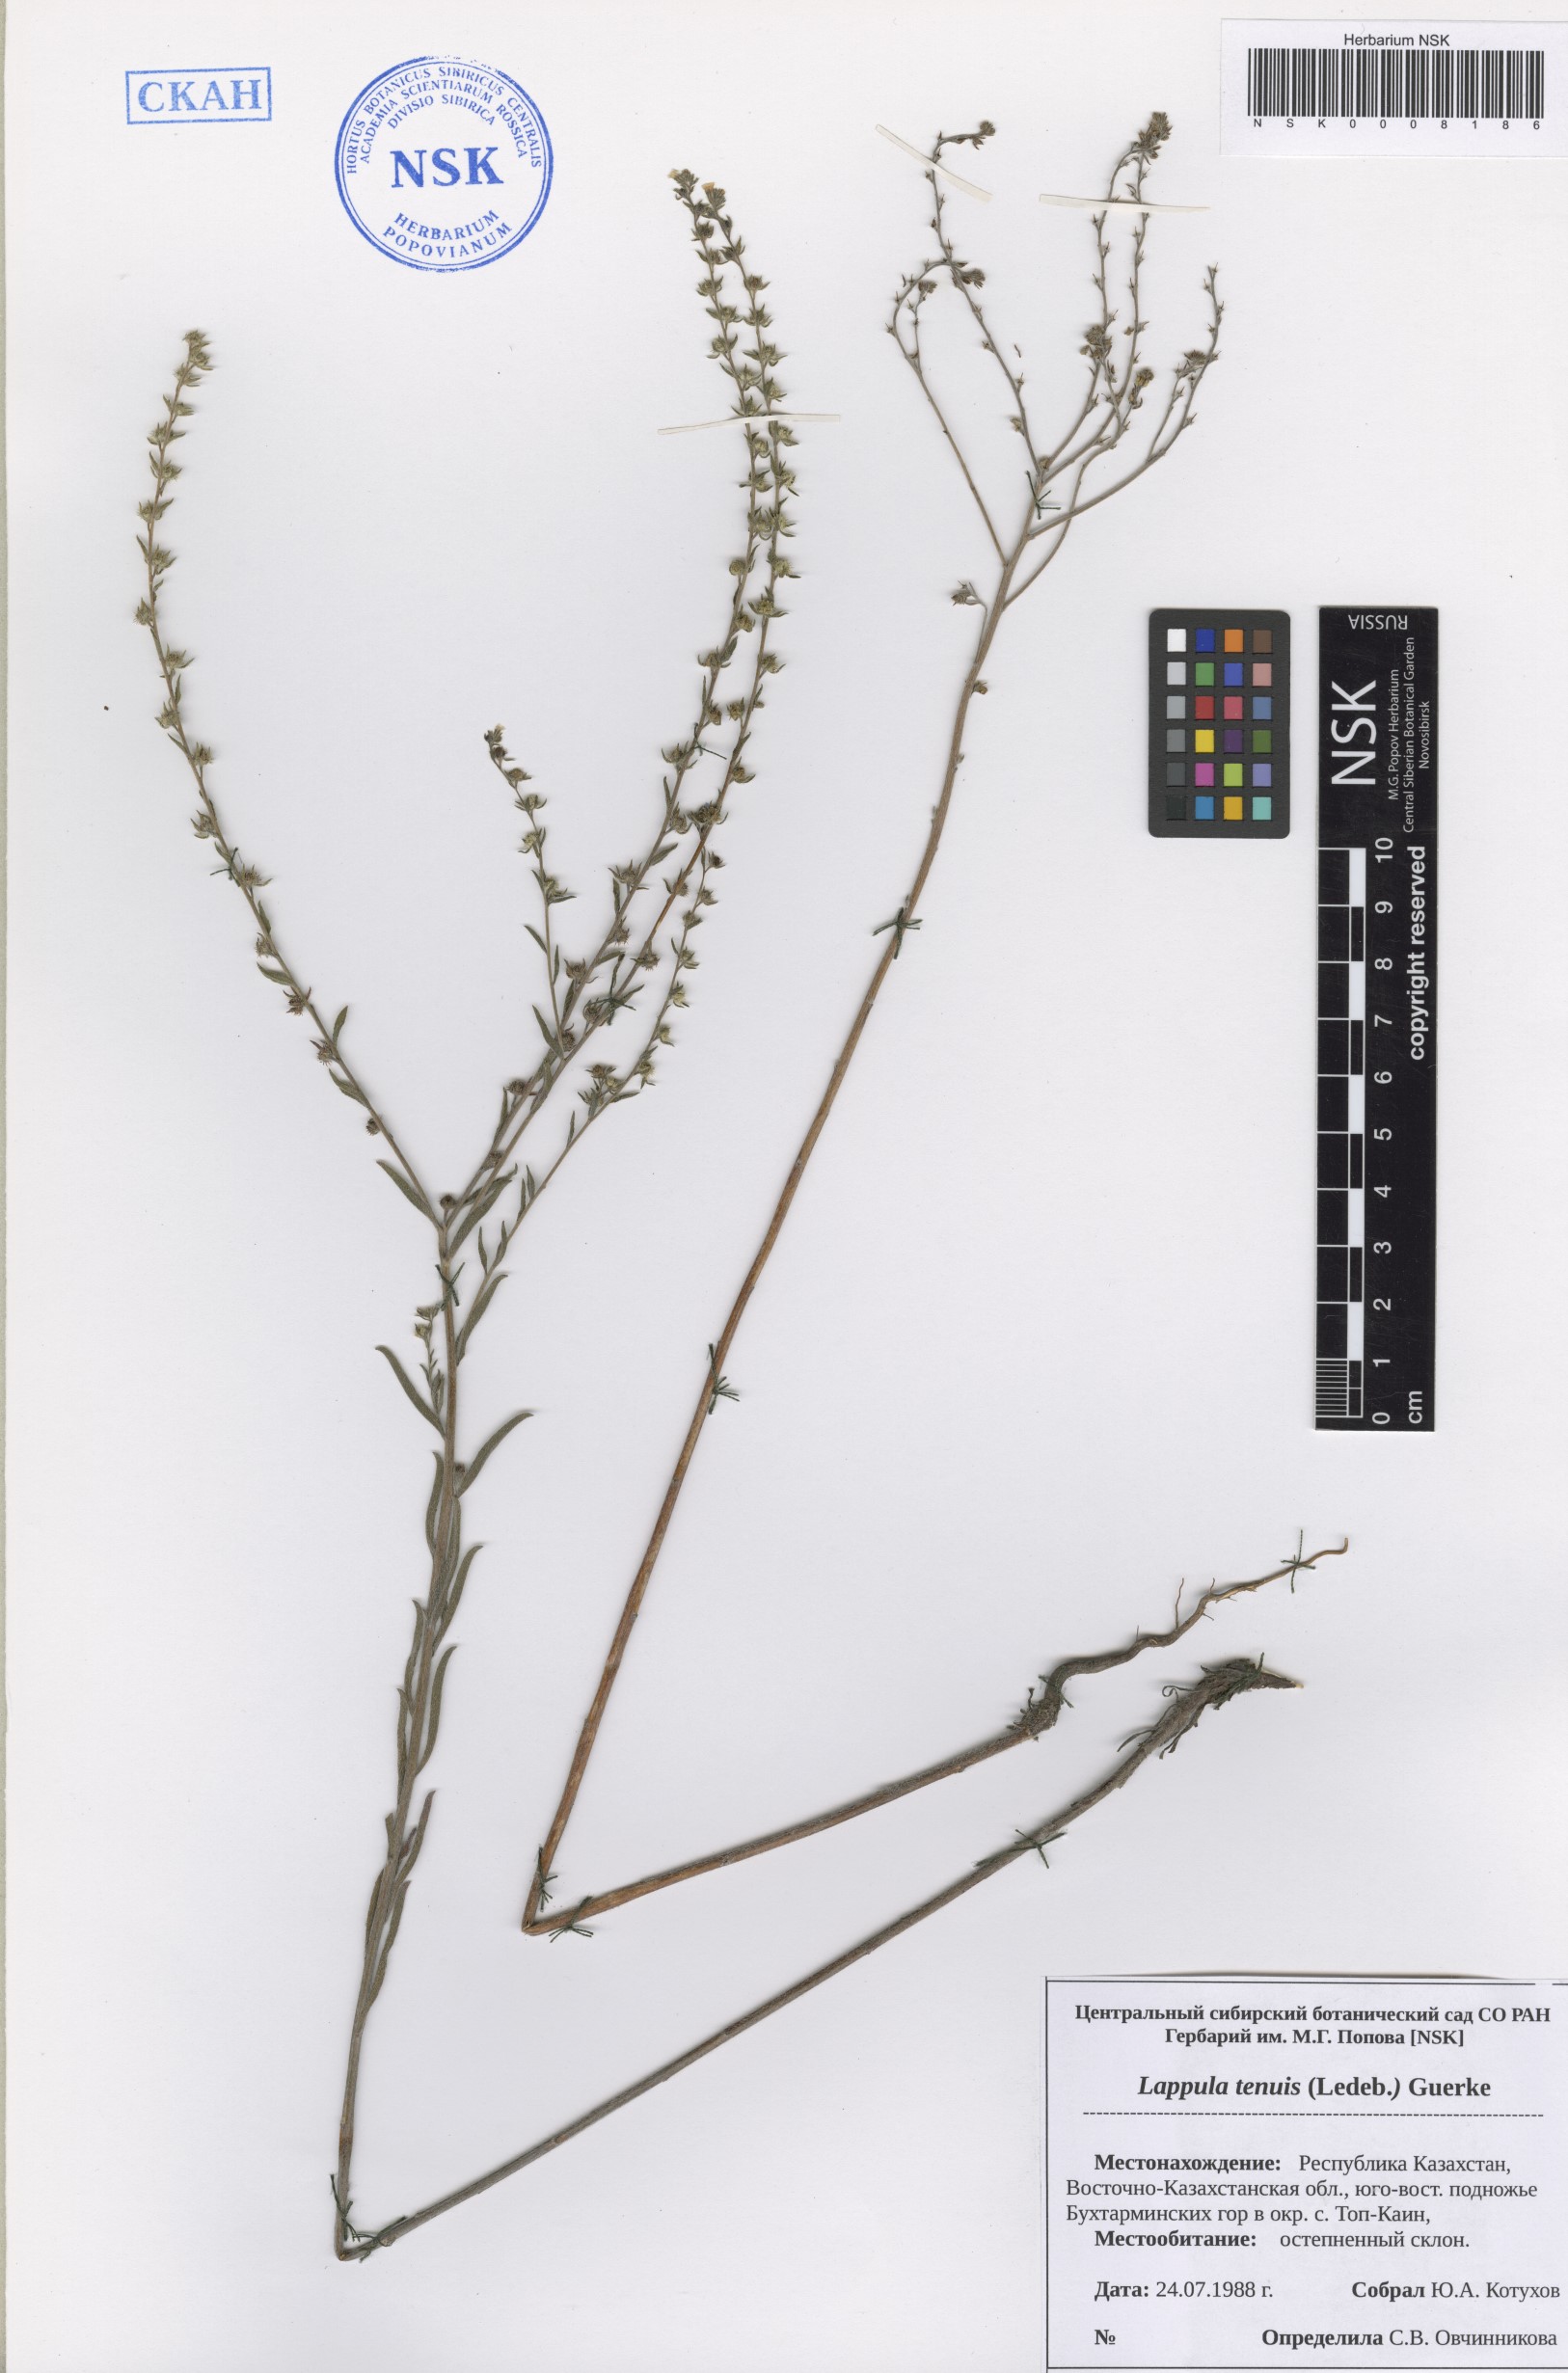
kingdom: Plantae
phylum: Tracheophyta
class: Magnoliopsida
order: Boraginales
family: Boraginaceae
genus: Lappula
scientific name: Lappula tenuis
